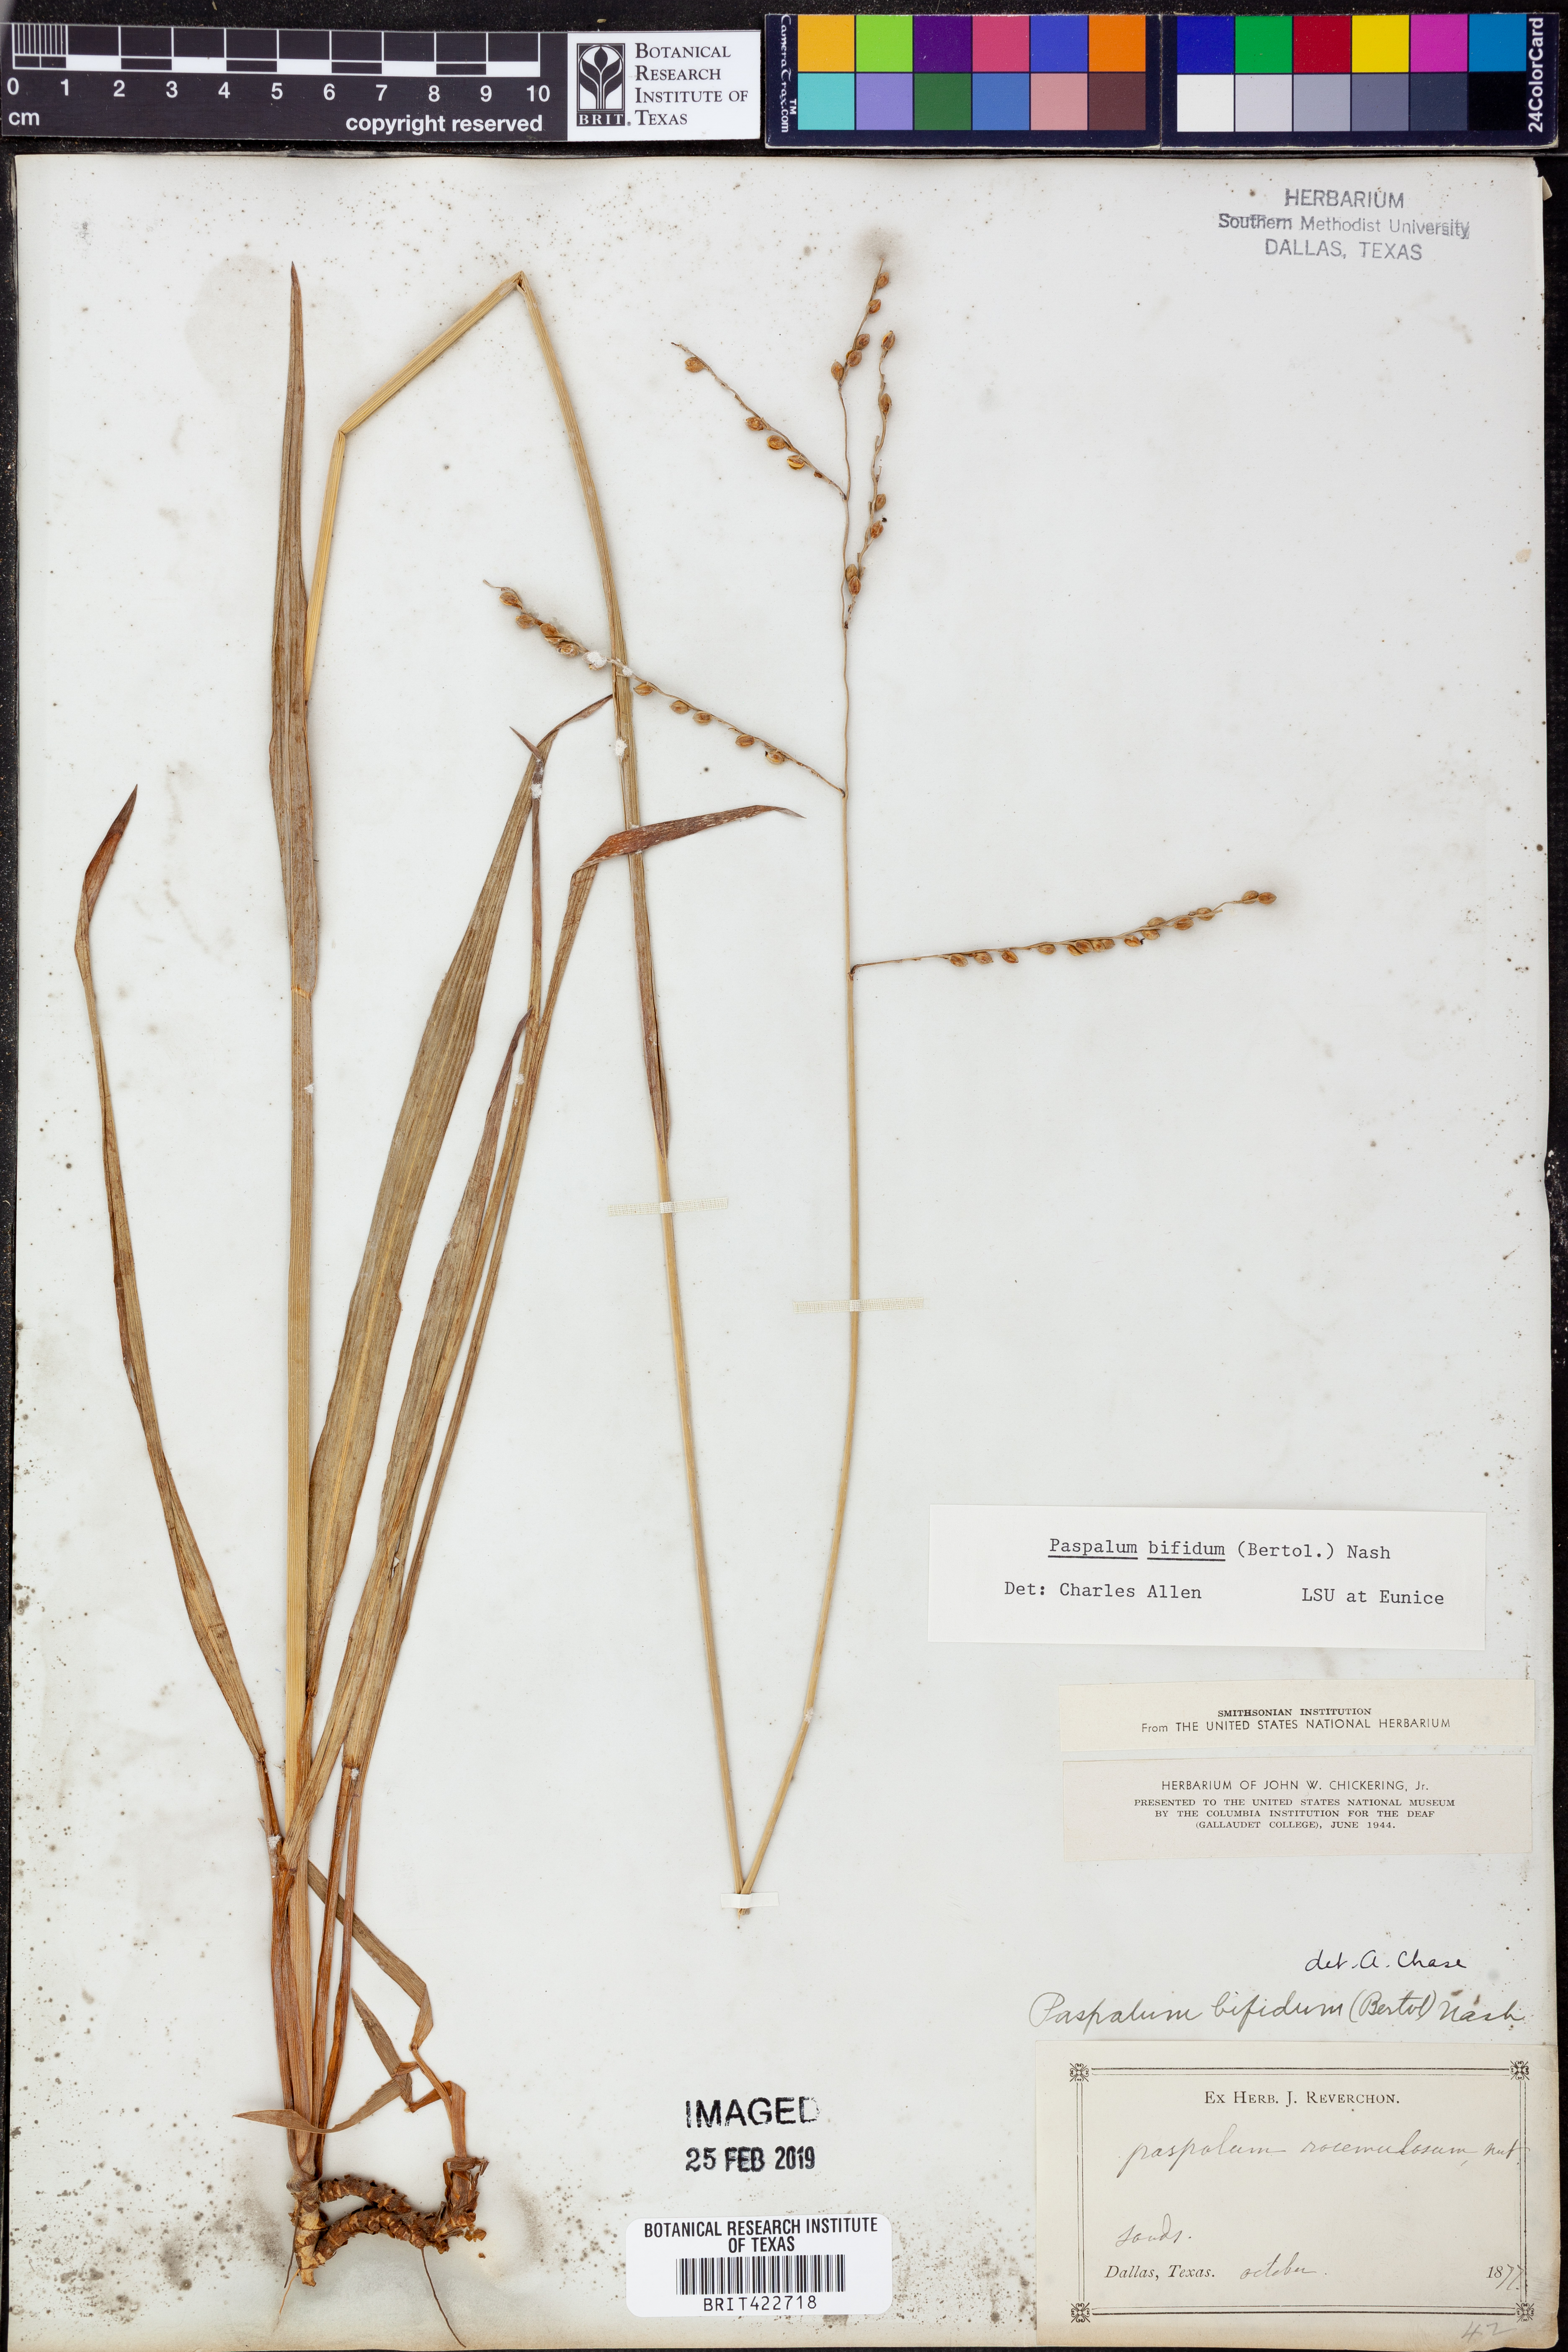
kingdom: Plantae
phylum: Tracheophyta
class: Liliopsida
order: Poales
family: Poaceae
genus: Paspalum
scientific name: Paspalum bifidum
